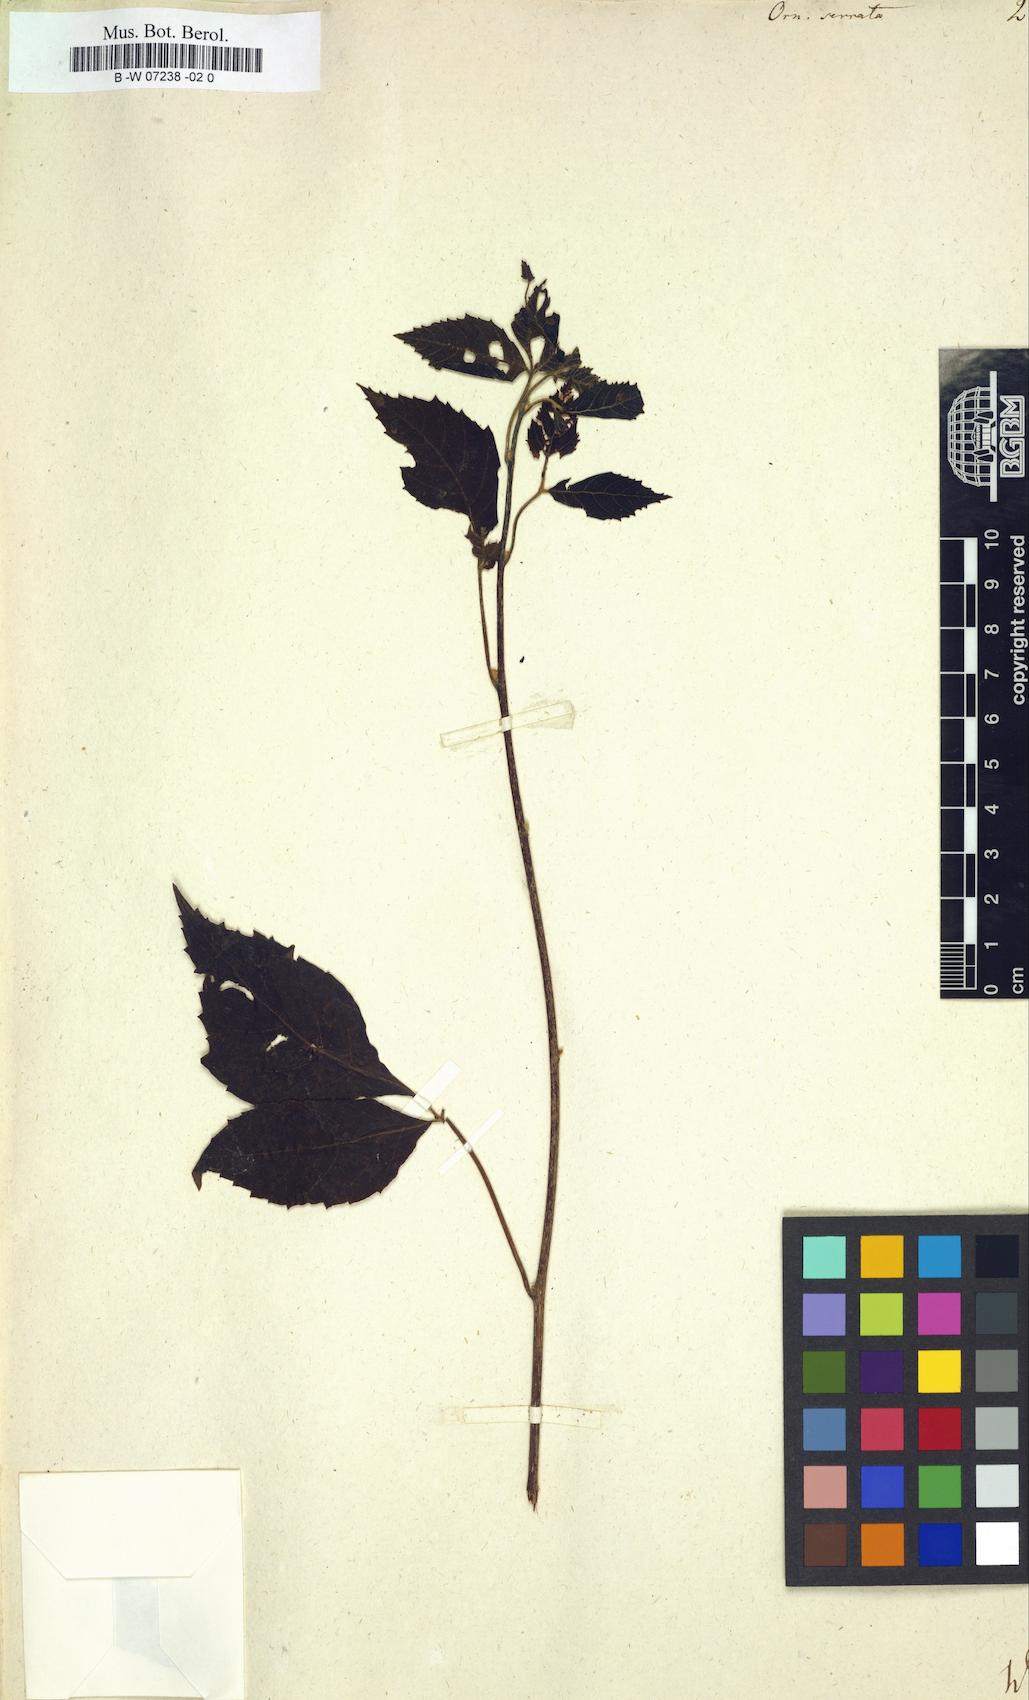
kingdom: Plantae
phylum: Tracheophyta
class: Magnoliopsida
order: Sapindales
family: Sapindaceae
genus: Allophylus
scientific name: Allophylus serratus
